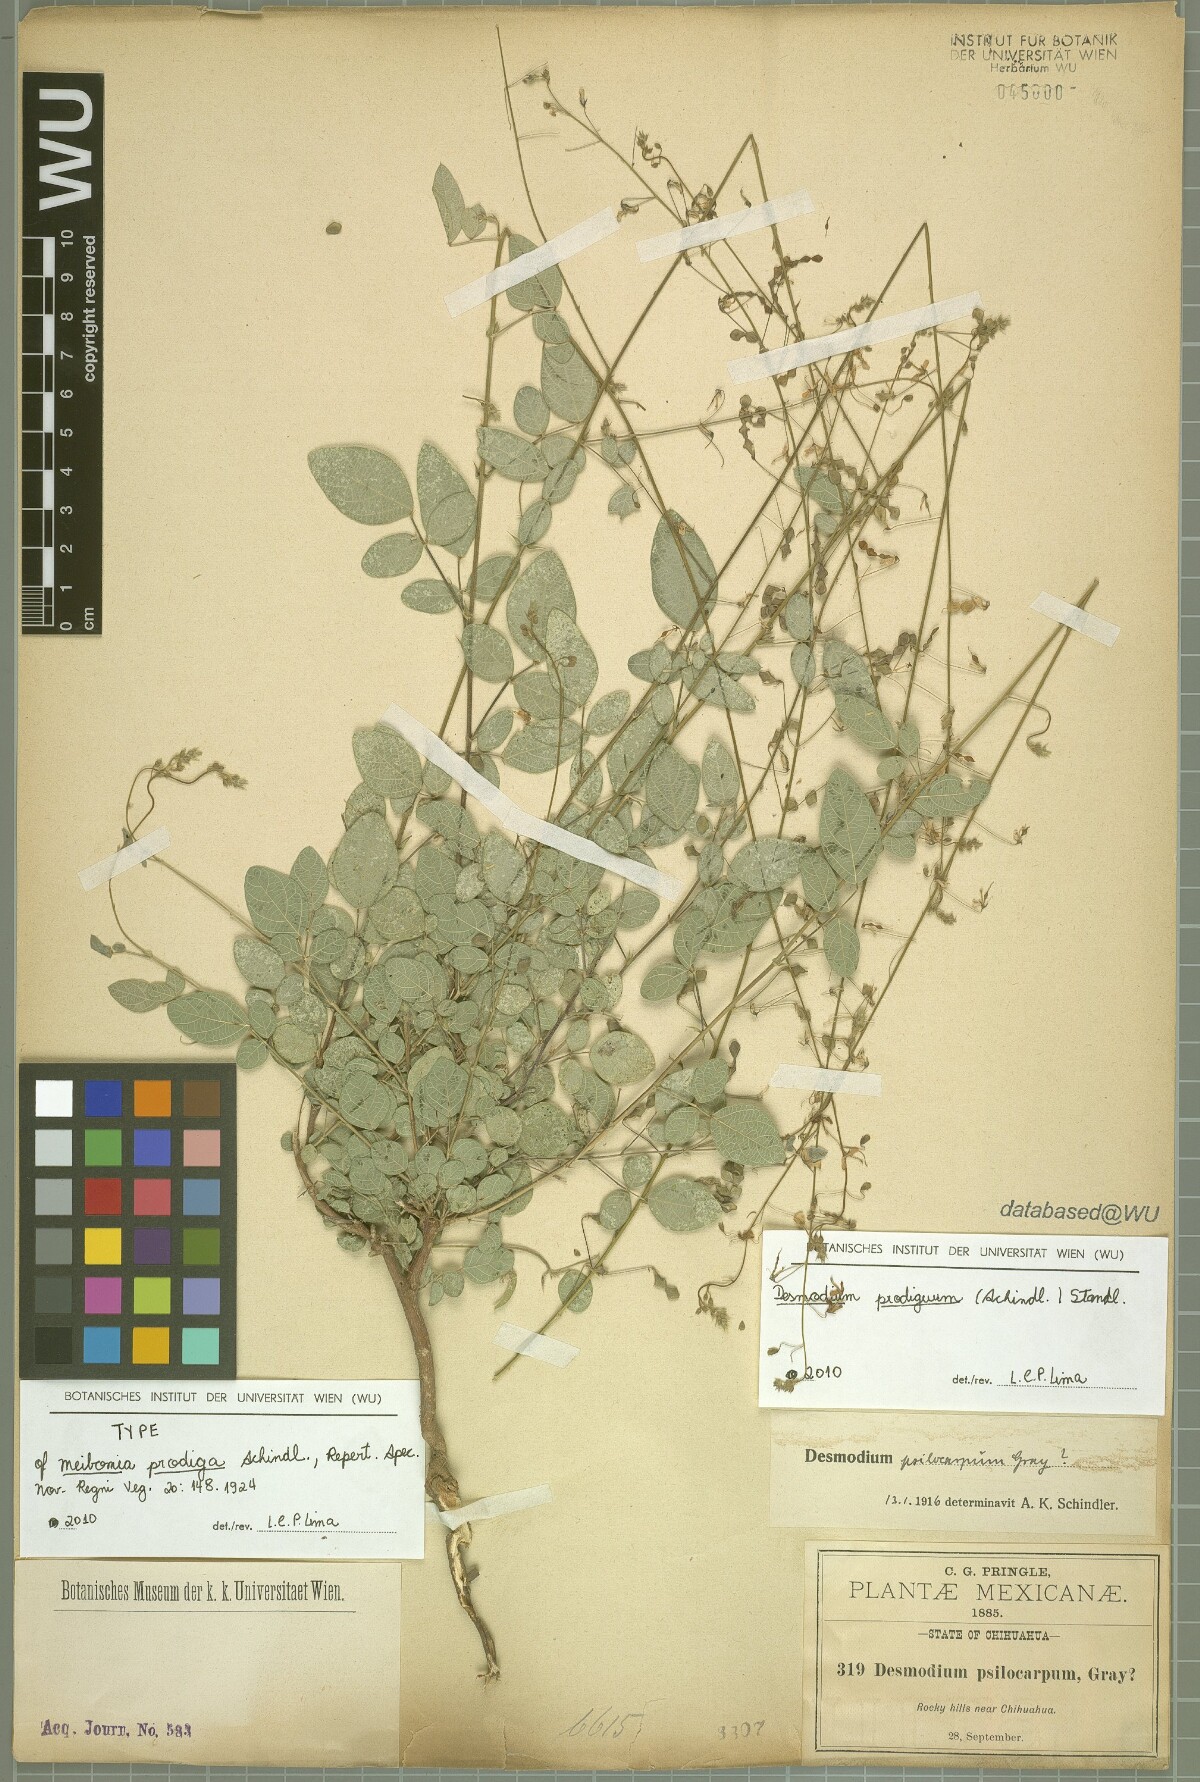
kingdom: Plantae
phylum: Tracheophyta
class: Magnoliopsida
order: Fabales
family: Fabaceae
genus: Desmodium
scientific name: Desmodium prodigum
